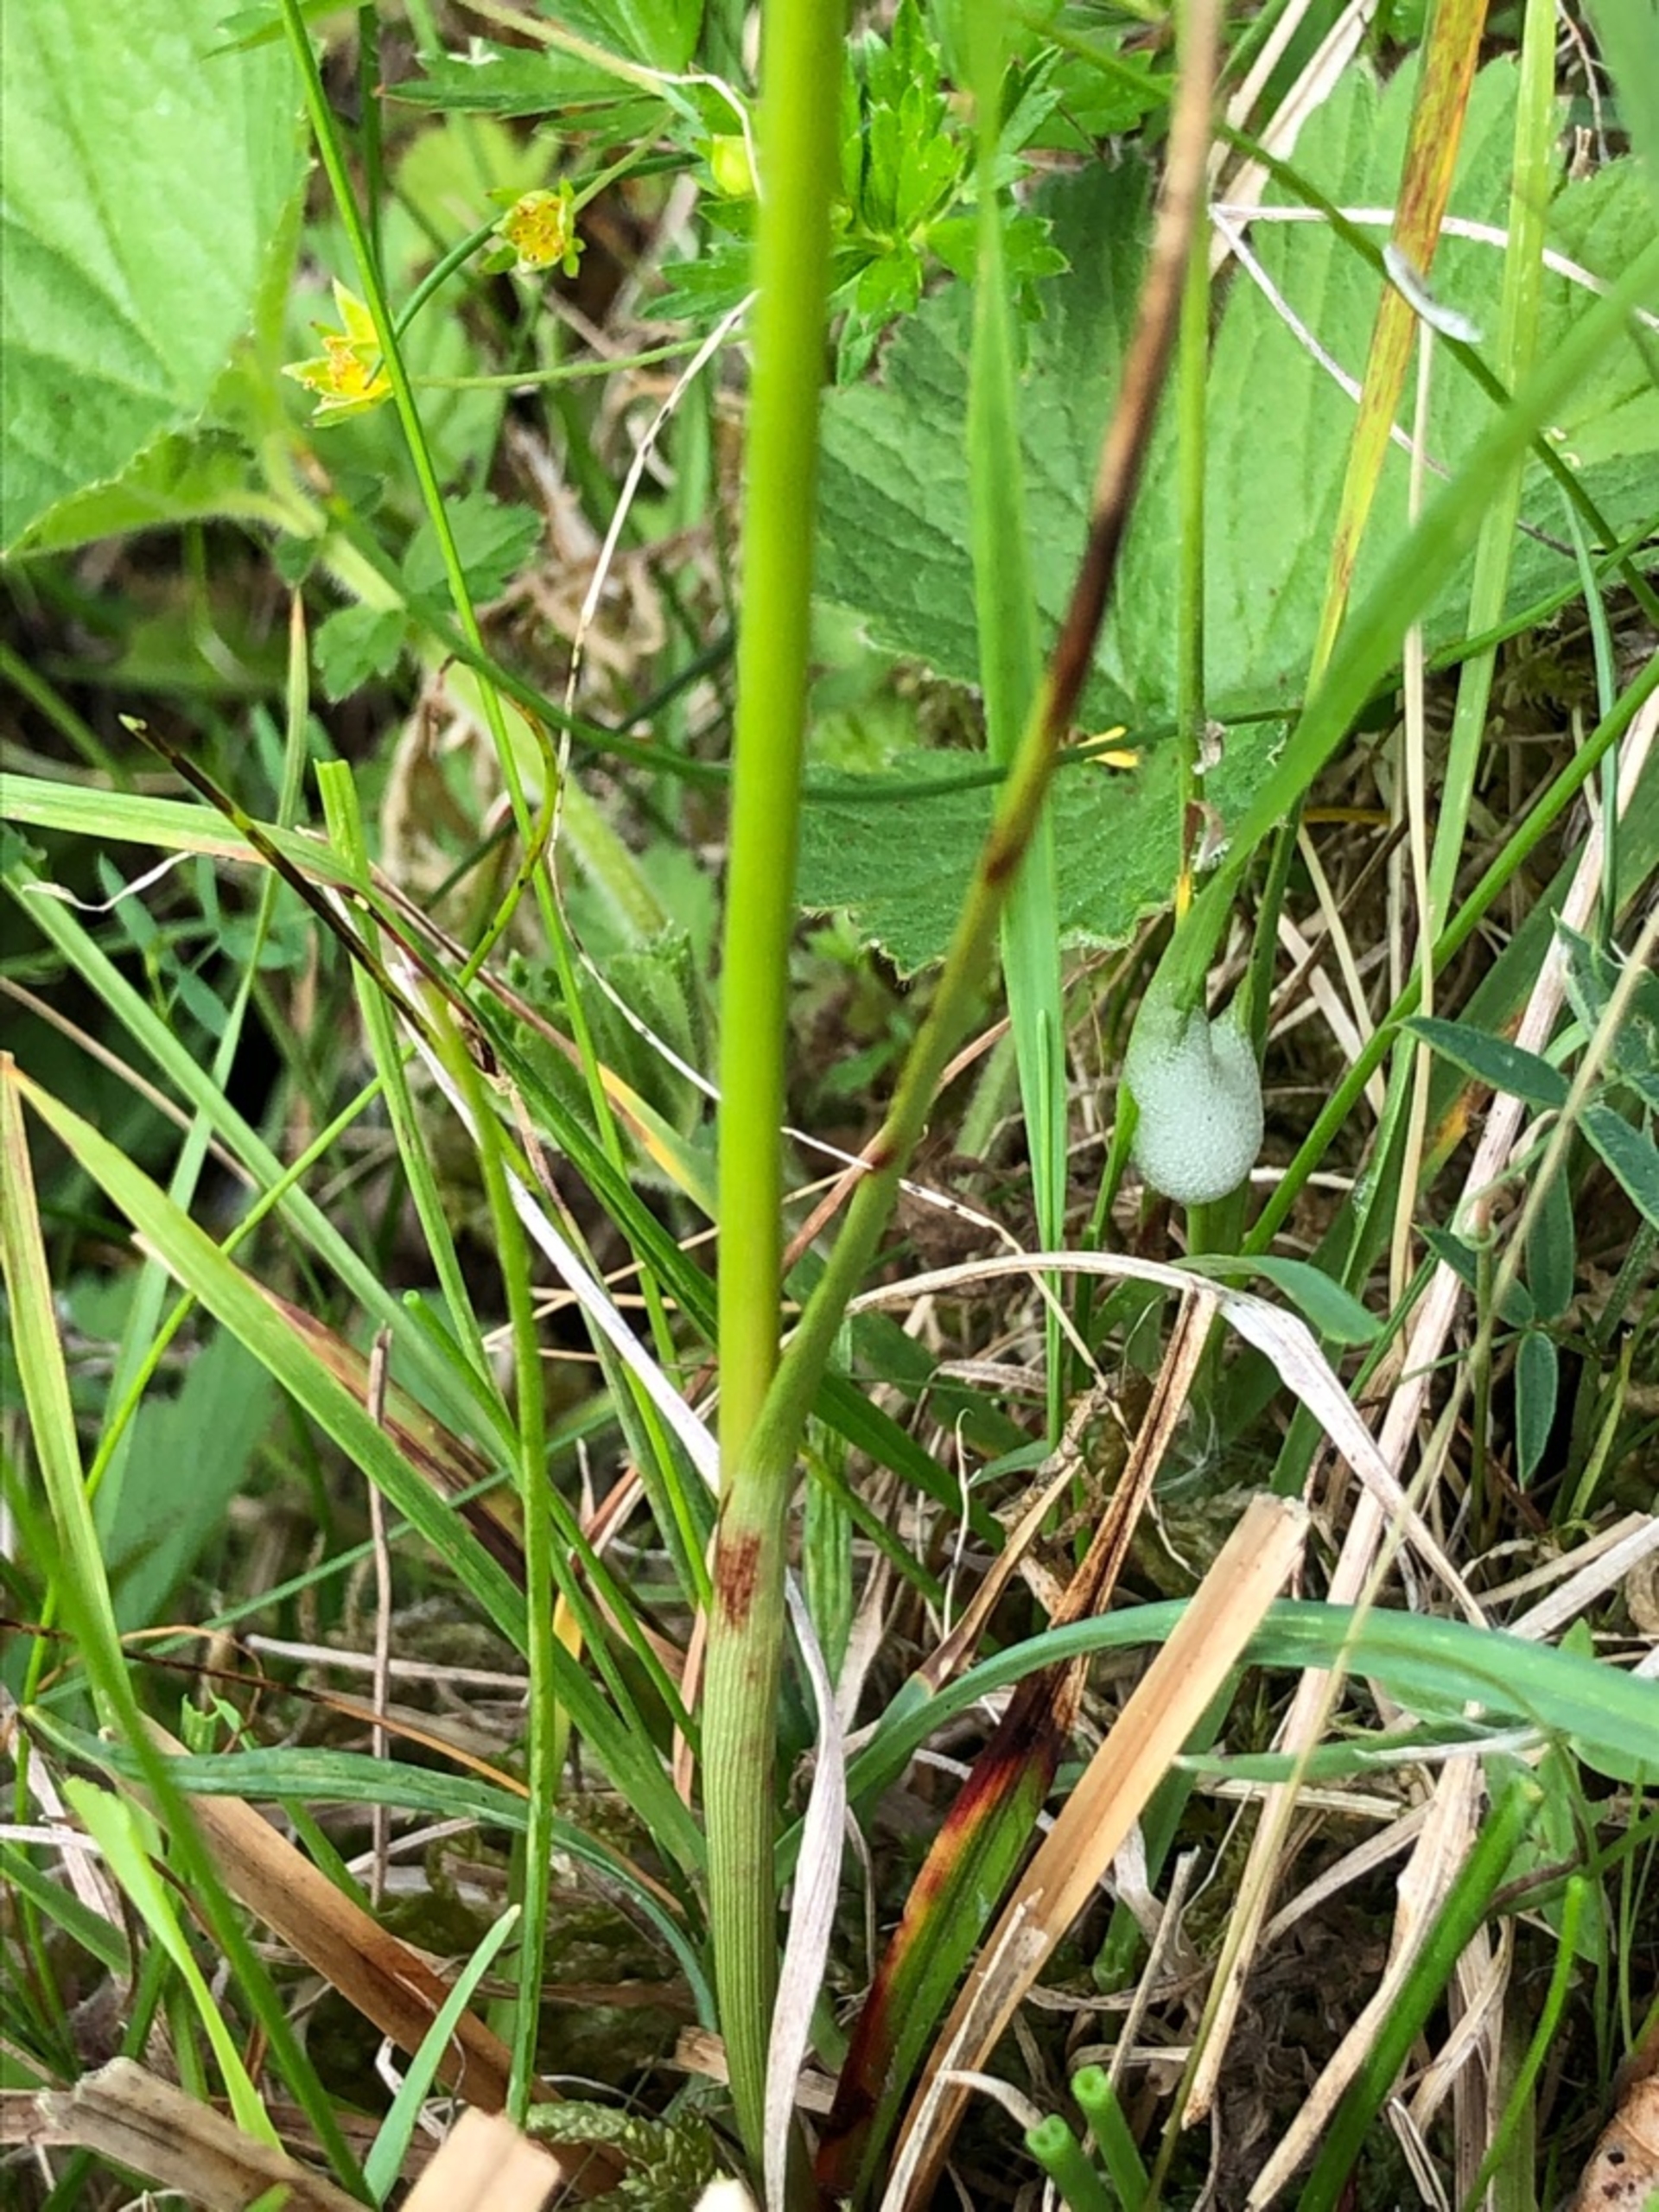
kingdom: Plantae
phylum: Tracheophyta
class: Liliopsida
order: Poales
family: Cyperaceae
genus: Eriophorum
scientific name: Eriophorum angustifolium
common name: Smalbladet kæruld
